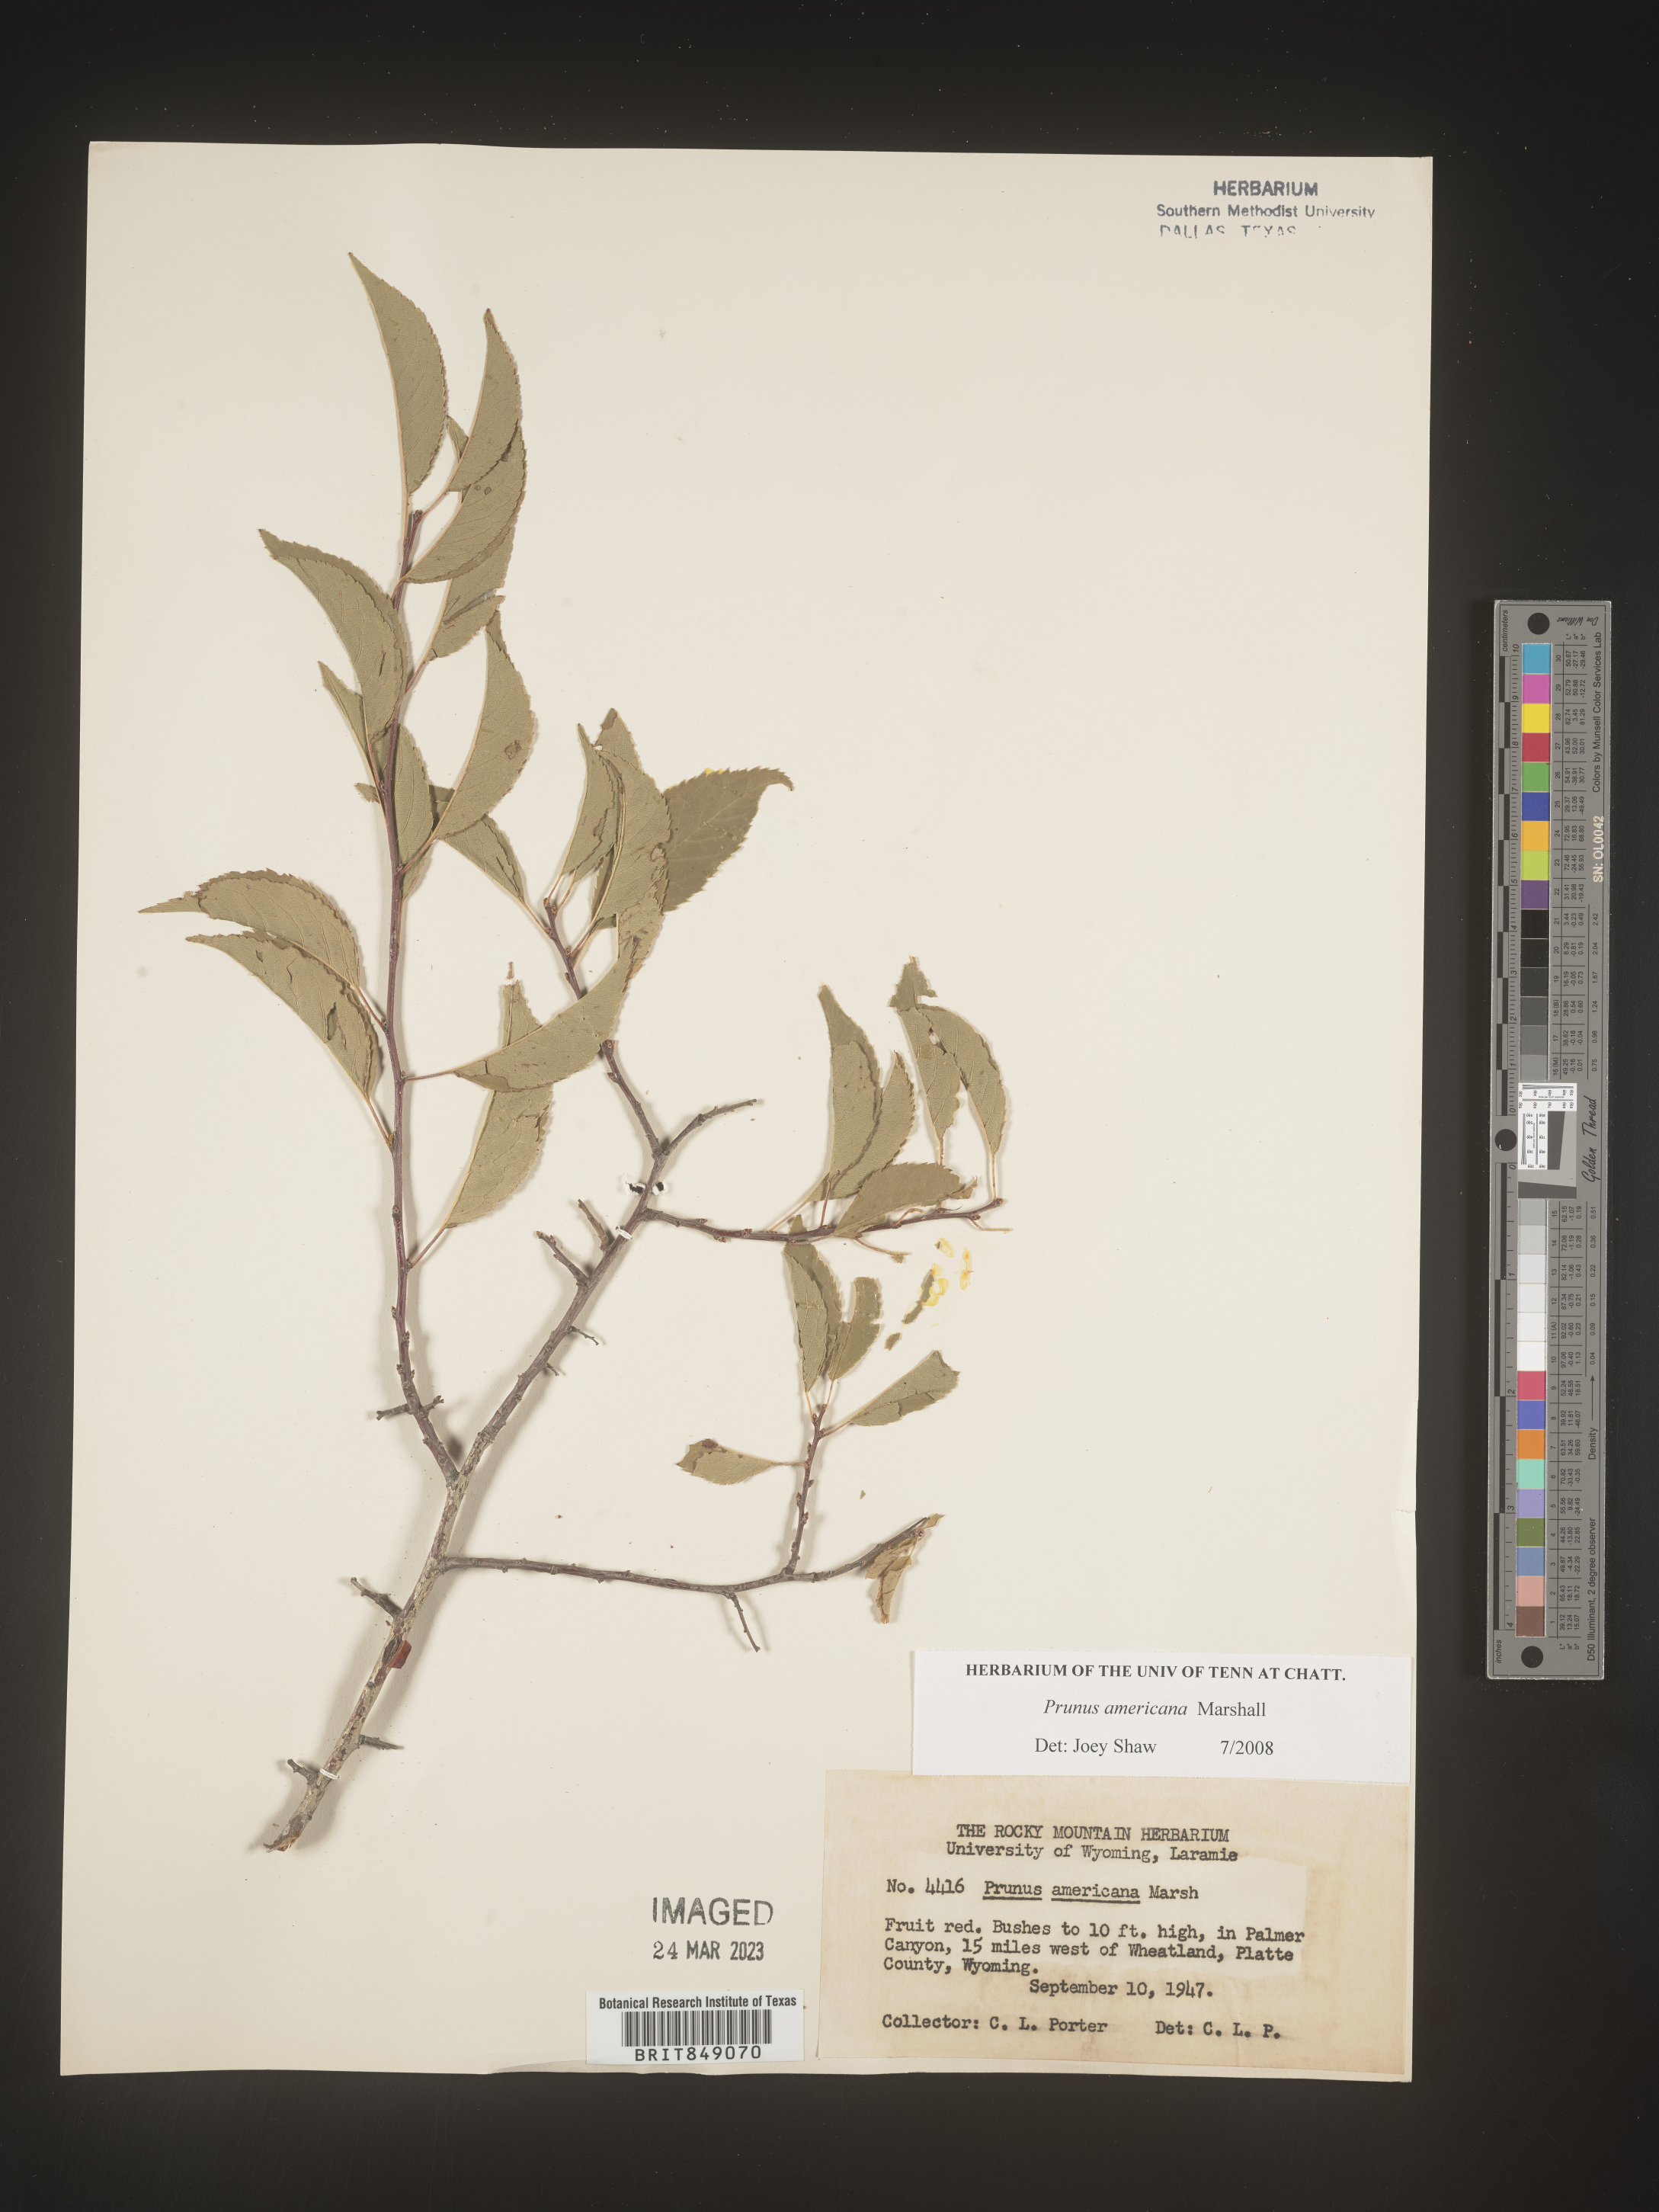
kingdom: Plantae
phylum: Tracheophyta
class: Magnoliopsida
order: Rosales
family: Rosaceae
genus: Prunus
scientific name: Prunus americana
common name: American plum
